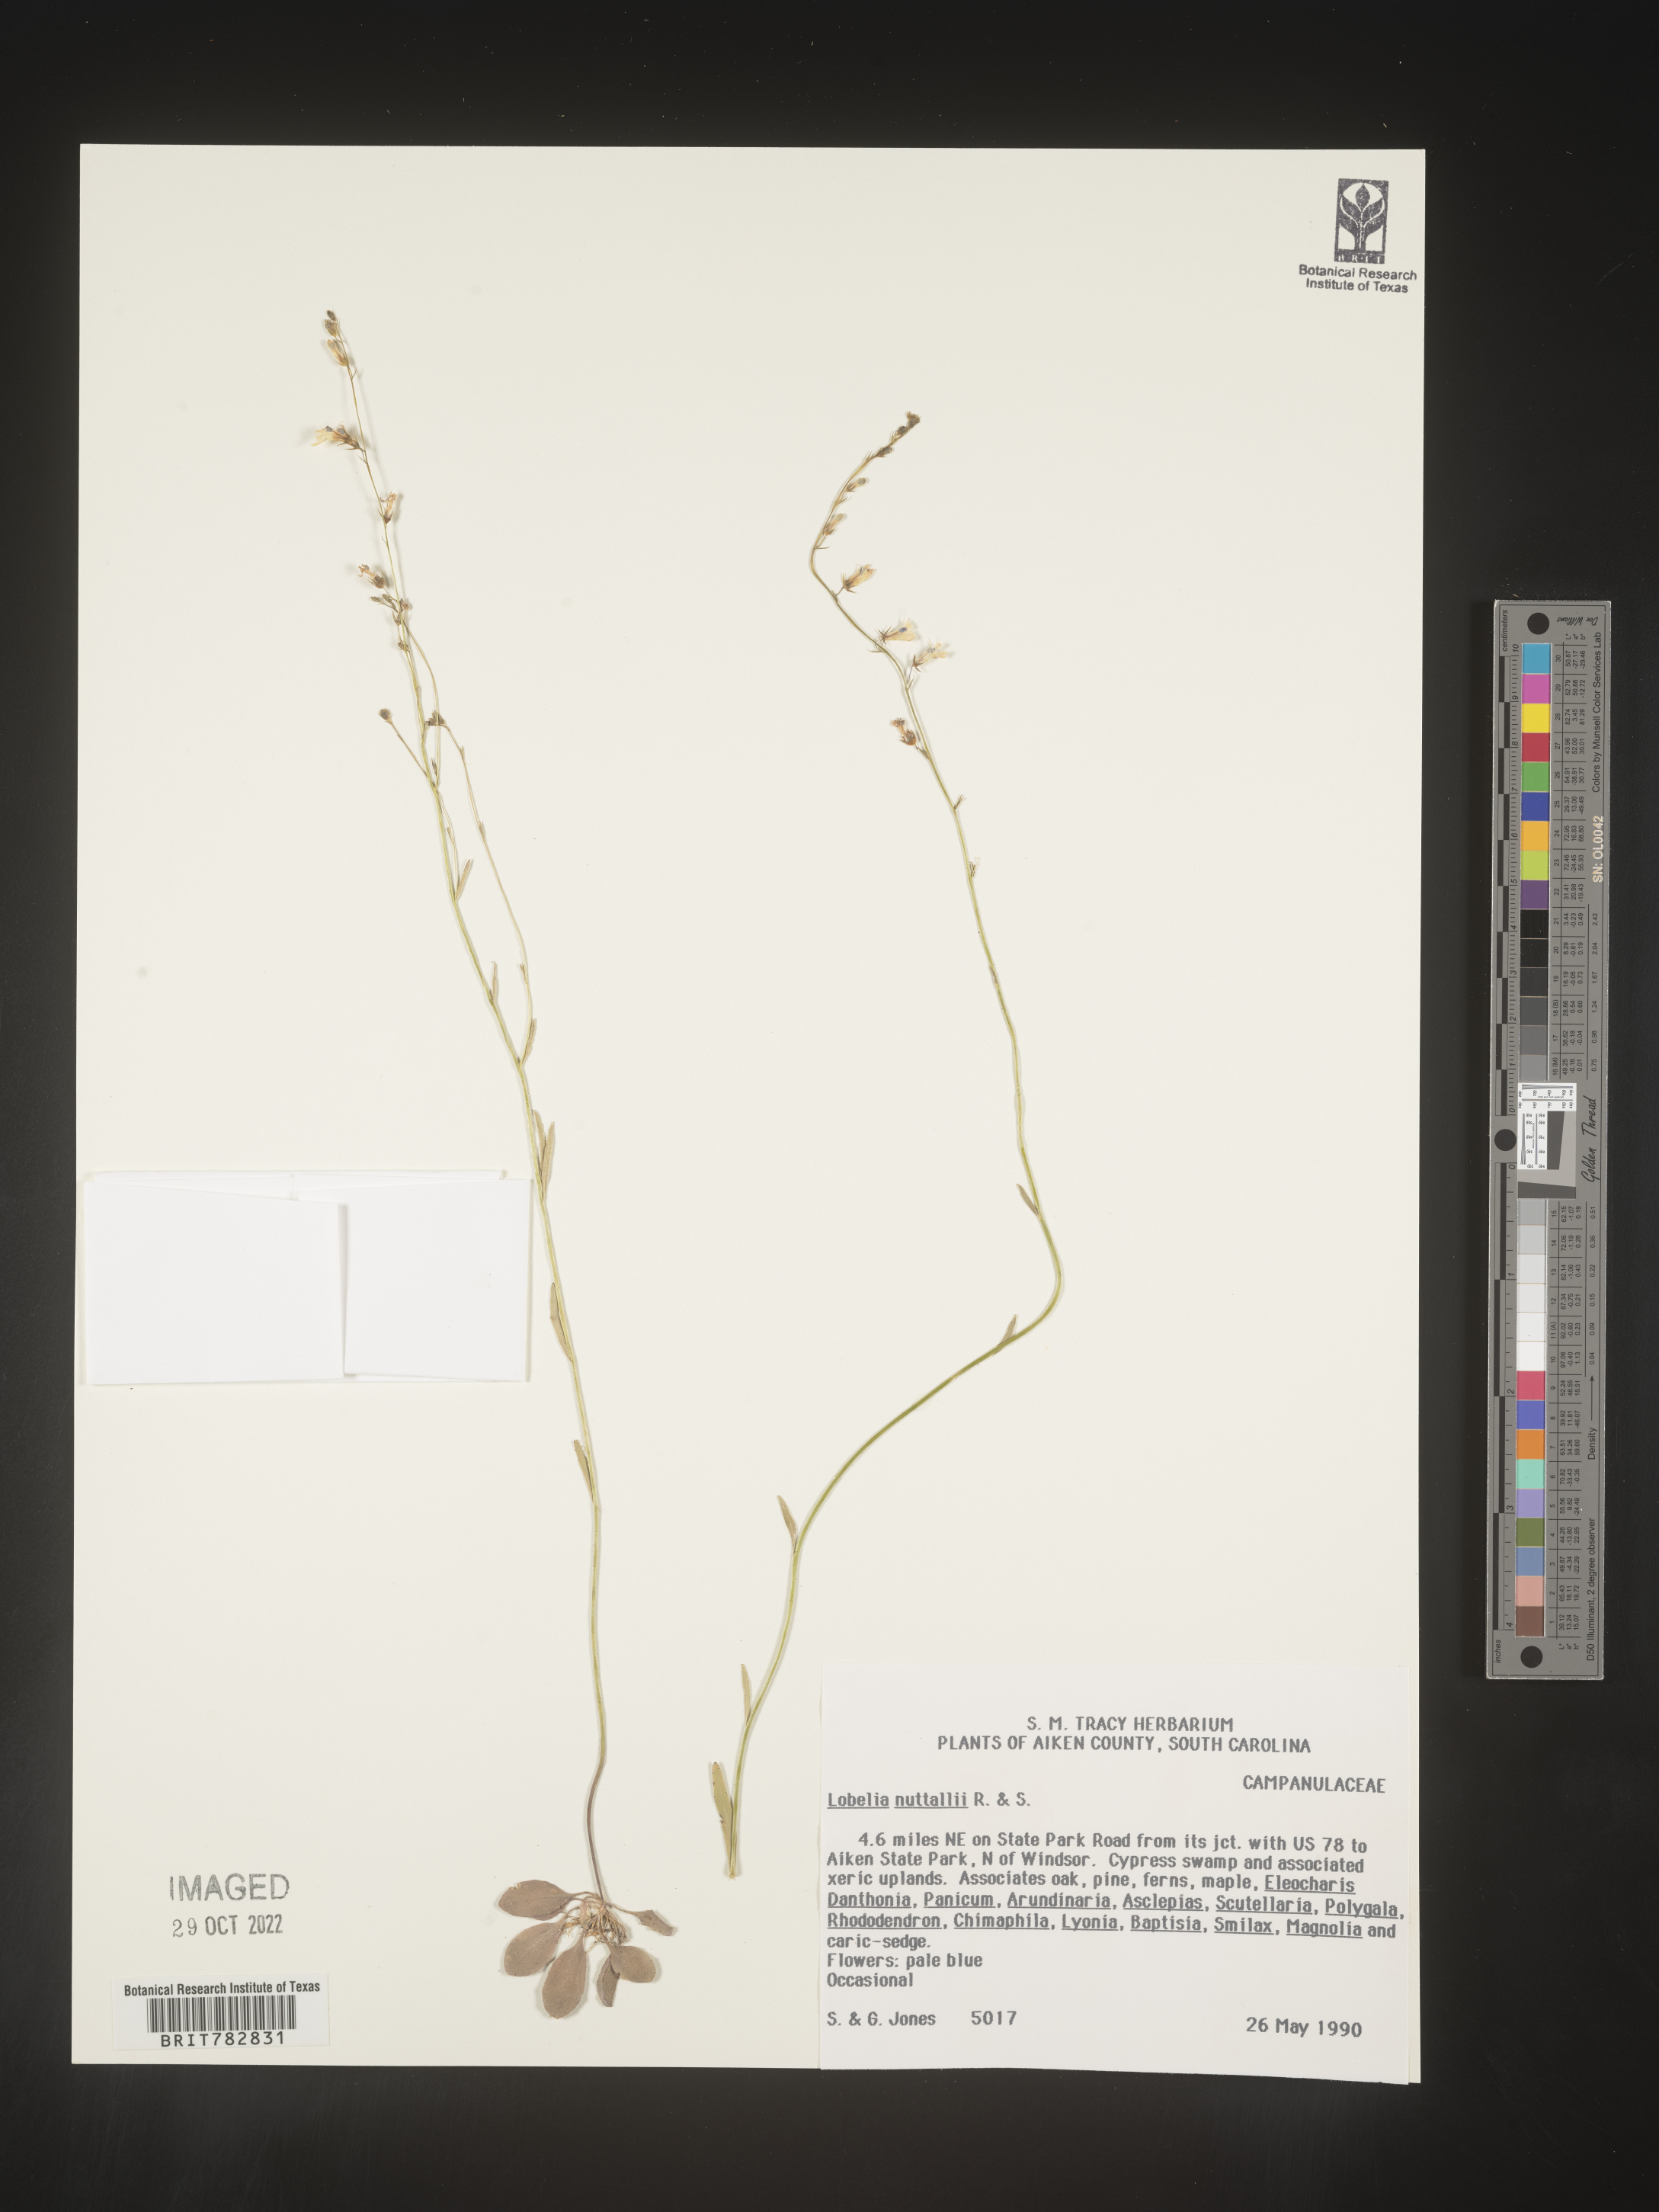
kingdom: Plantae
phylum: Tracheophyta
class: Magnoliopsida
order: Asterales
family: Campanulaceae
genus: Lobelia
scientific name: Lobelia nuttallii
